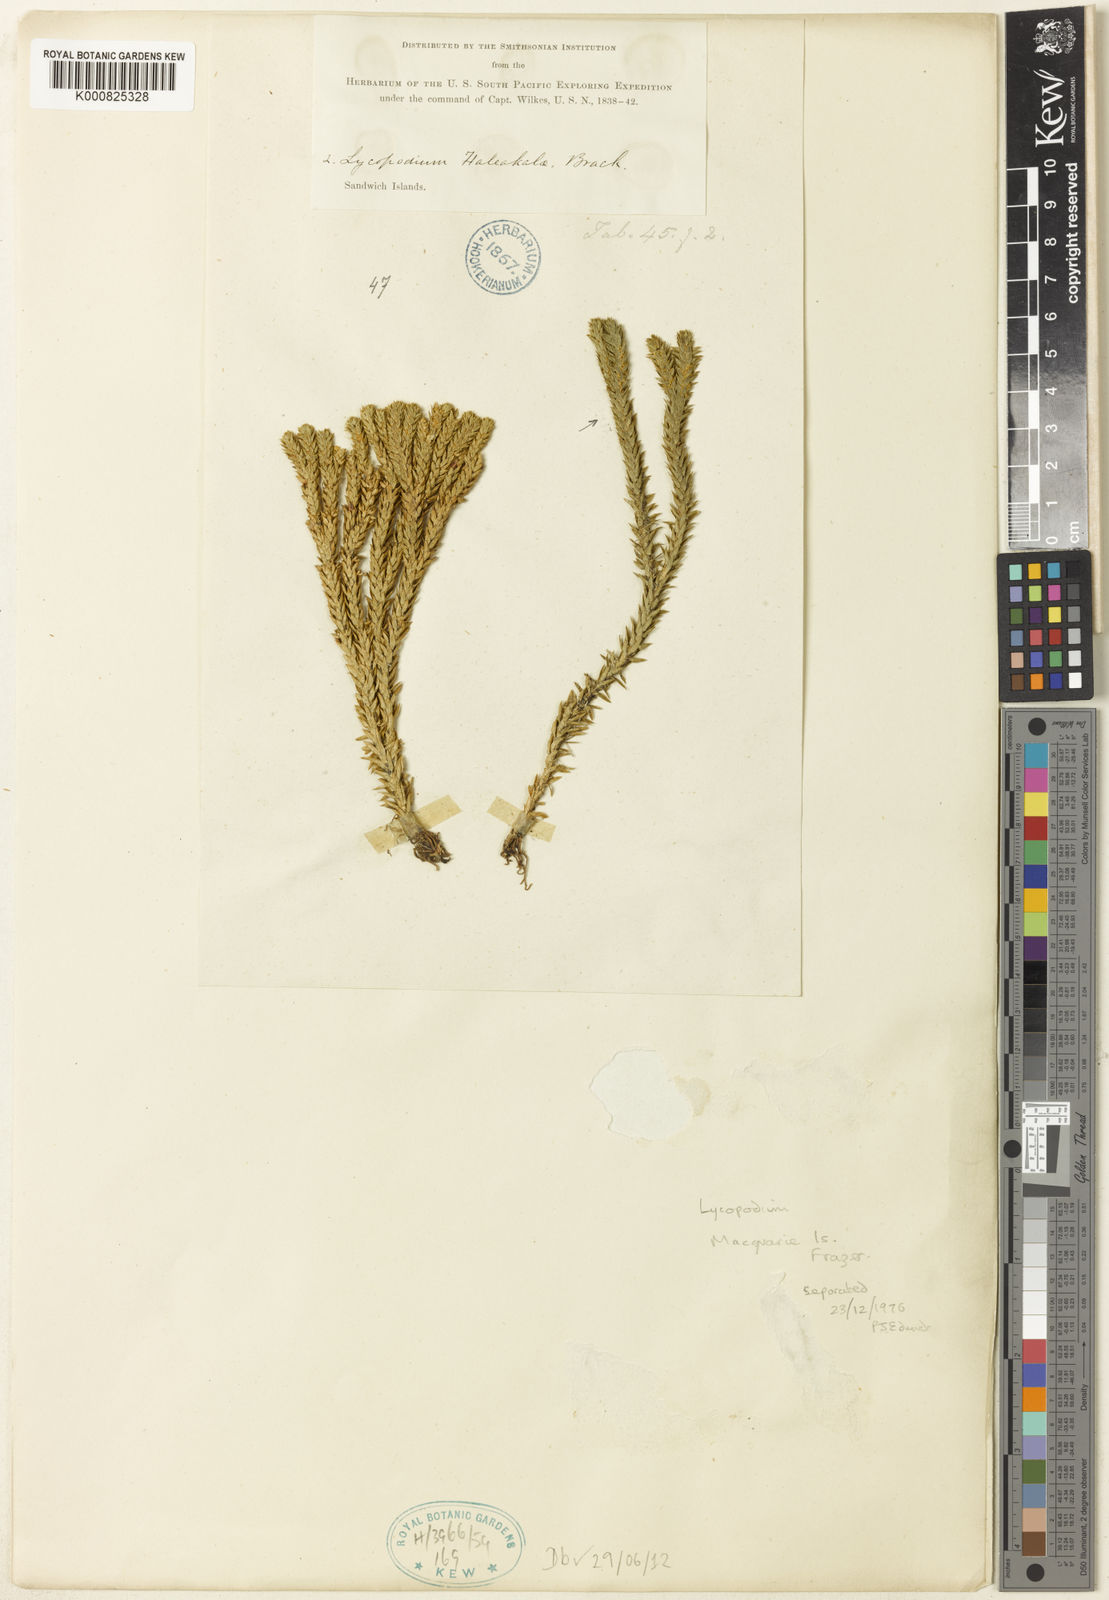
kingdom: Plantae
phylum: Tracheophyta
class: Lycopodiopsida
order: Lycopodiales
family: Lycopodiaceae
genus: Huperzia
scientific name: Huperzia haleakalae
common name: Haleakala firmoss
